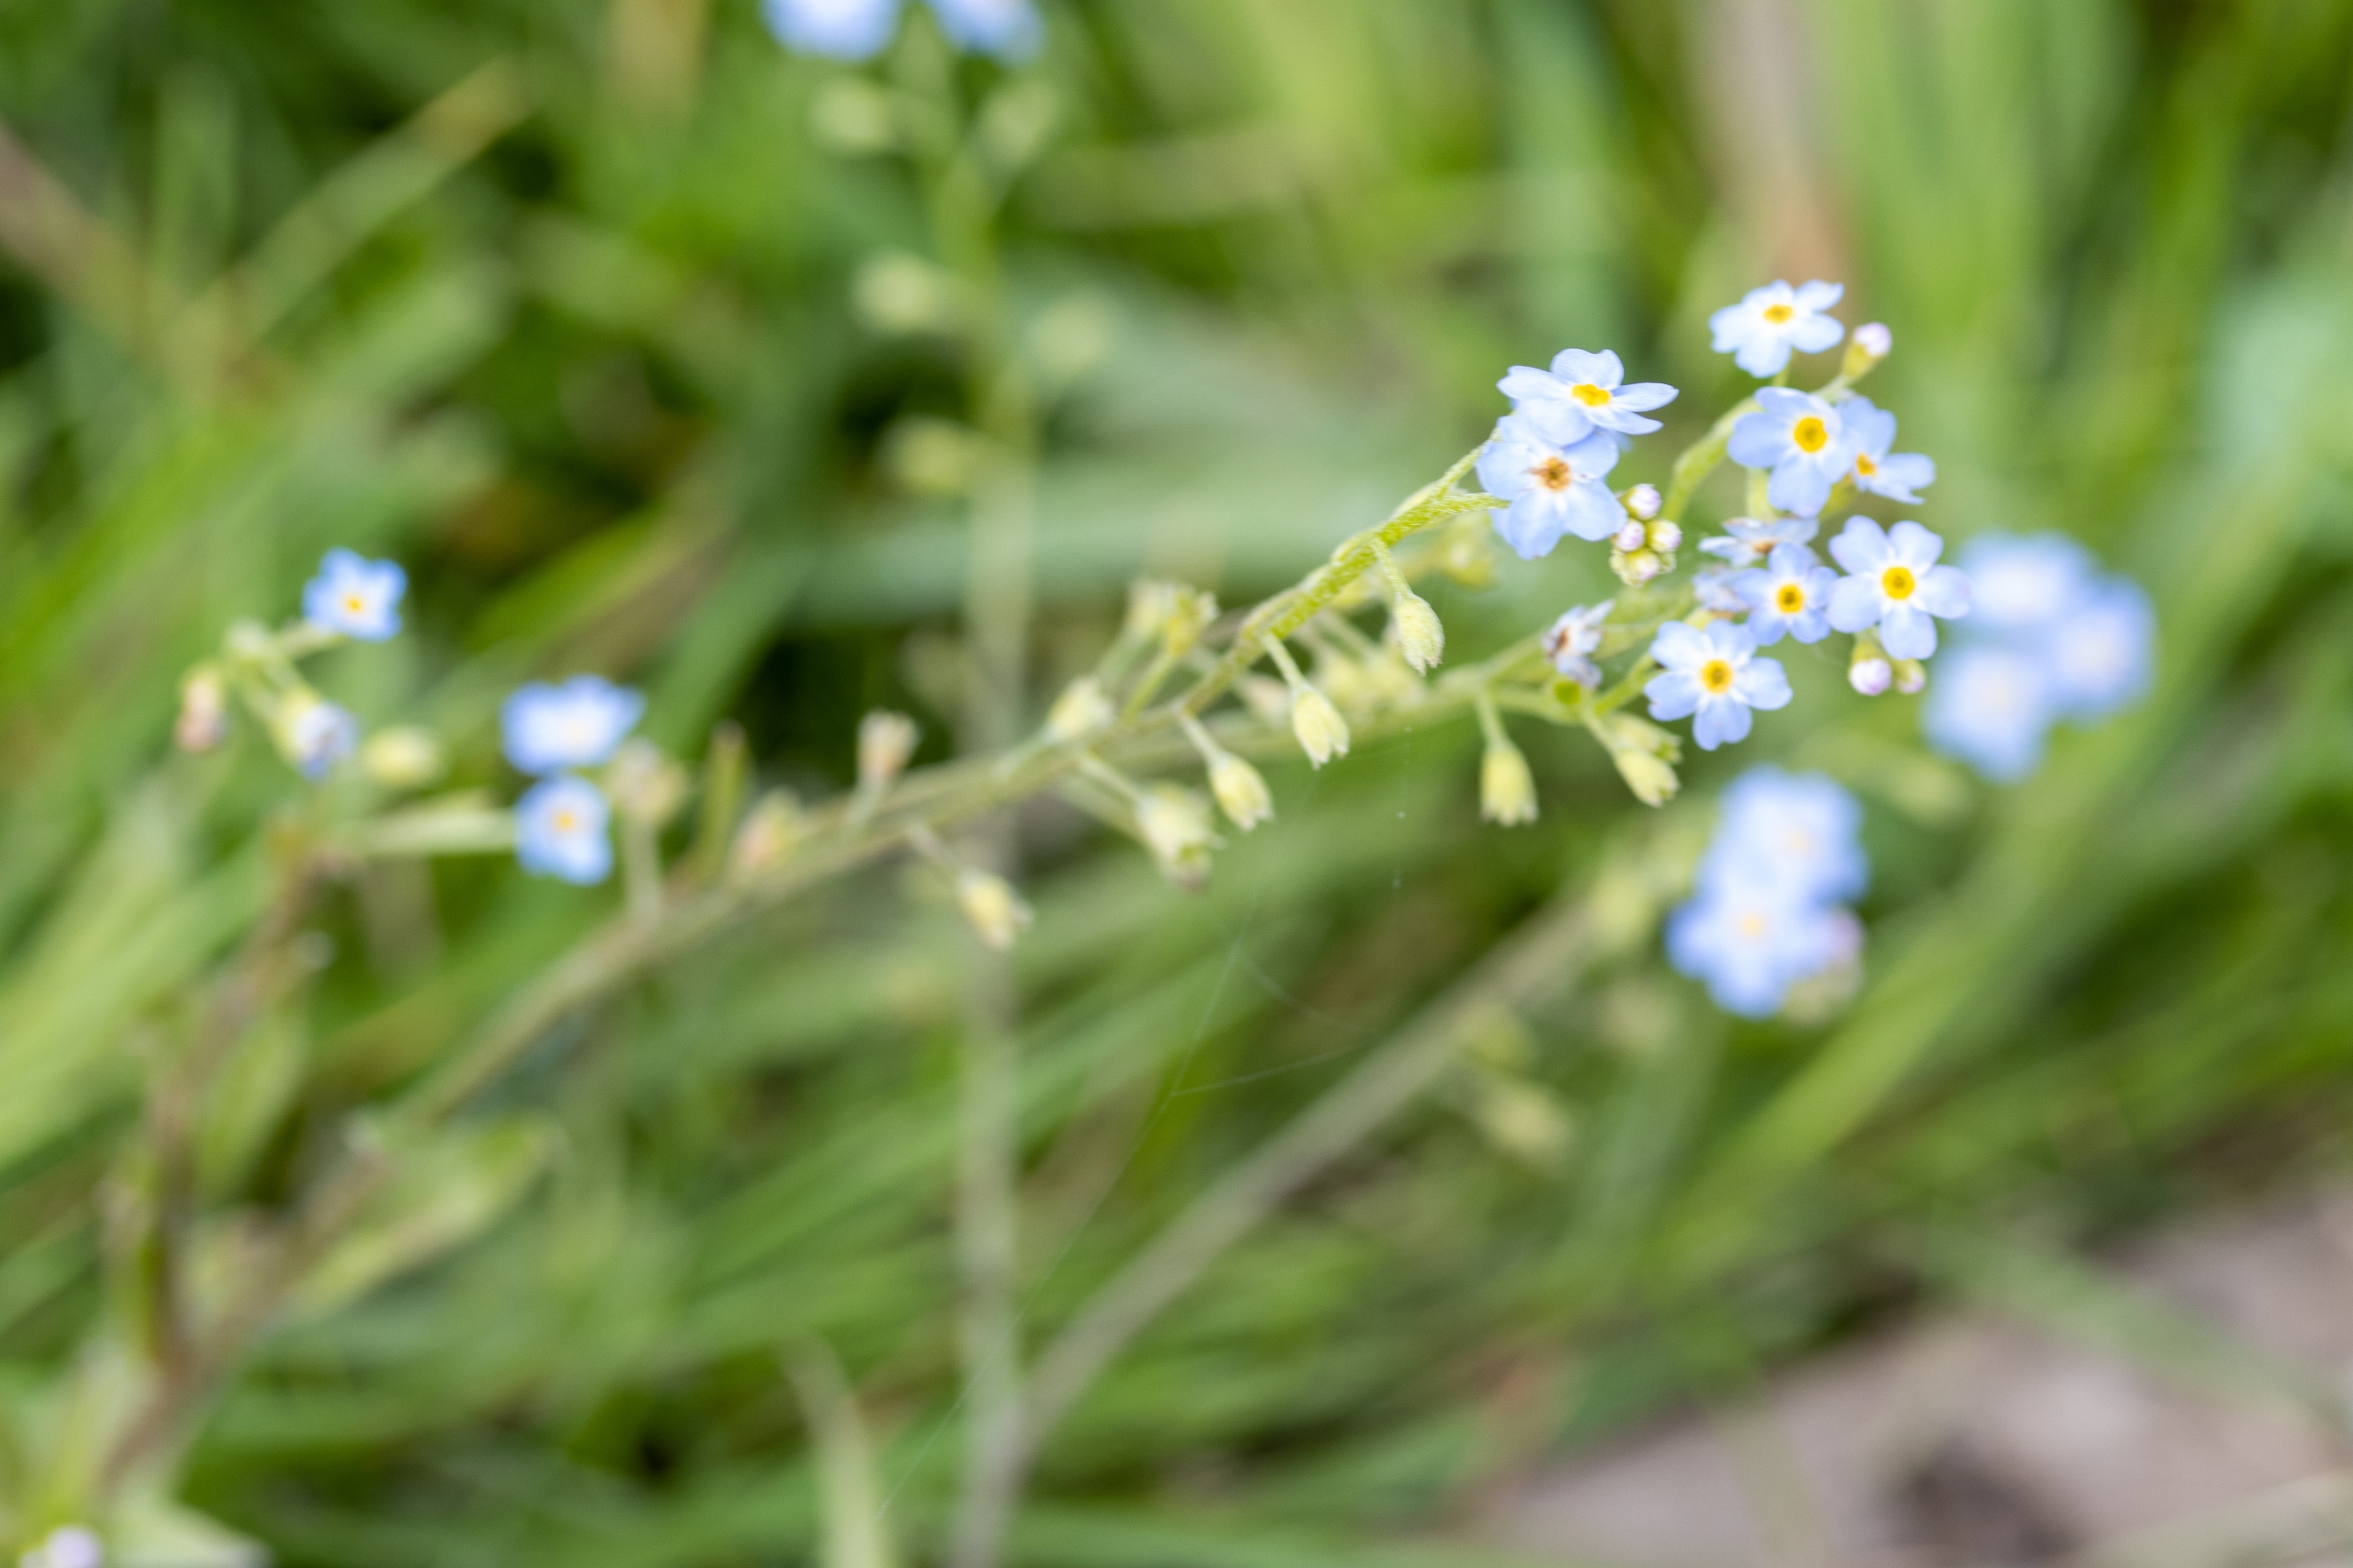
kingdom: Plantae
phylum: Tracheophyta
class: Magnoliopsida
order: Boraginales
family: Boraginaceae
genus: Myosotis
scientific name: Myosotis scorpioides
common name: Eng-forglemmigej
